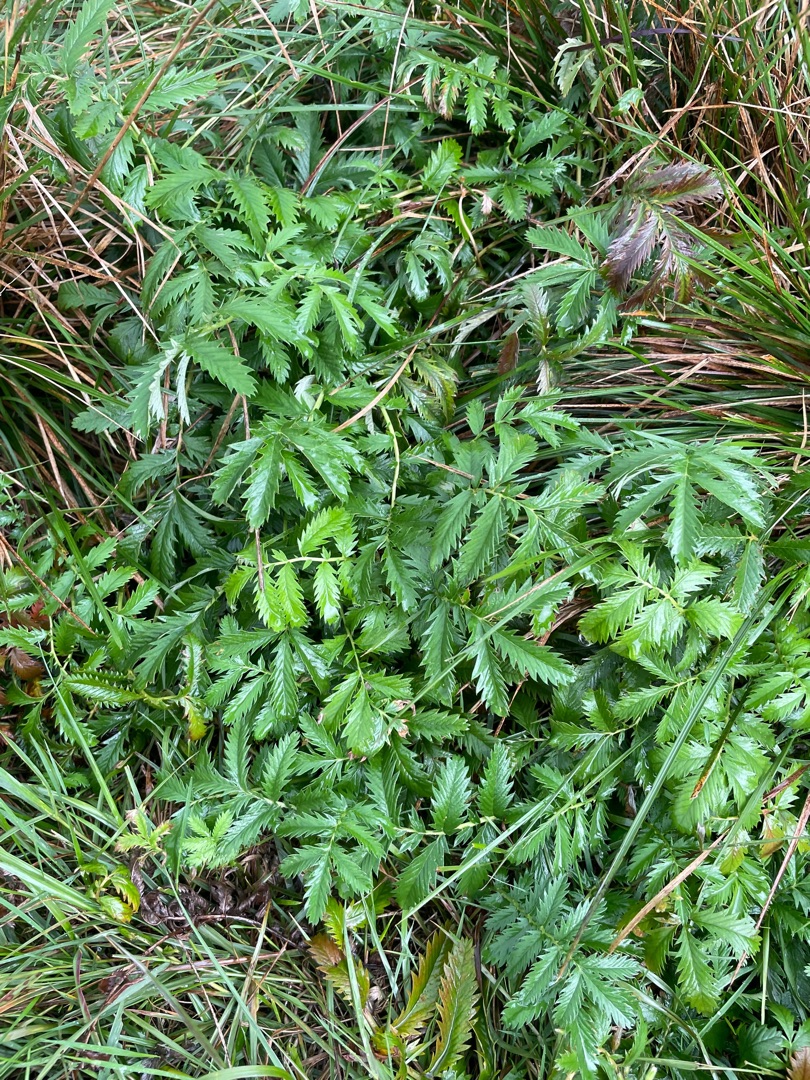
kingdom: Plantae
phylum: Tracheophyta
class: Magnoliopsida
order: Rosales
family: Rosaceae
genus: Argentina
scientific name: Argentina anserina
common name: Gåsepotentil
